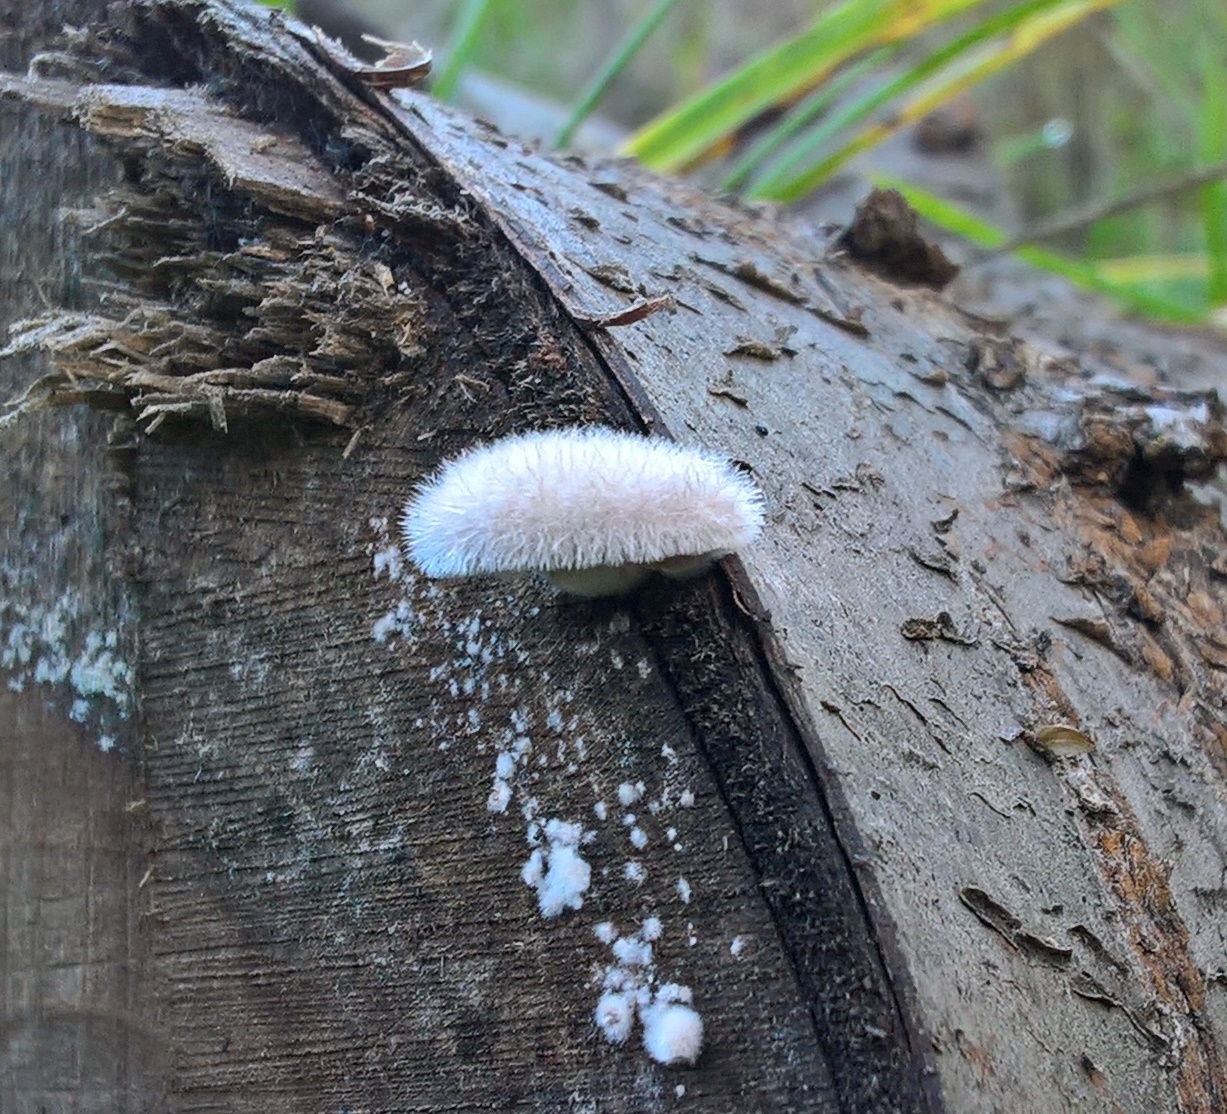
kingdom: Fungi
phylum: Basidiomycota
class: Agaricomycetes
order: Agaricales
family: Schizophyllaceae
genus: Schizophyllum
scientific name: Schizophyllum commune
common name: kløvblad
